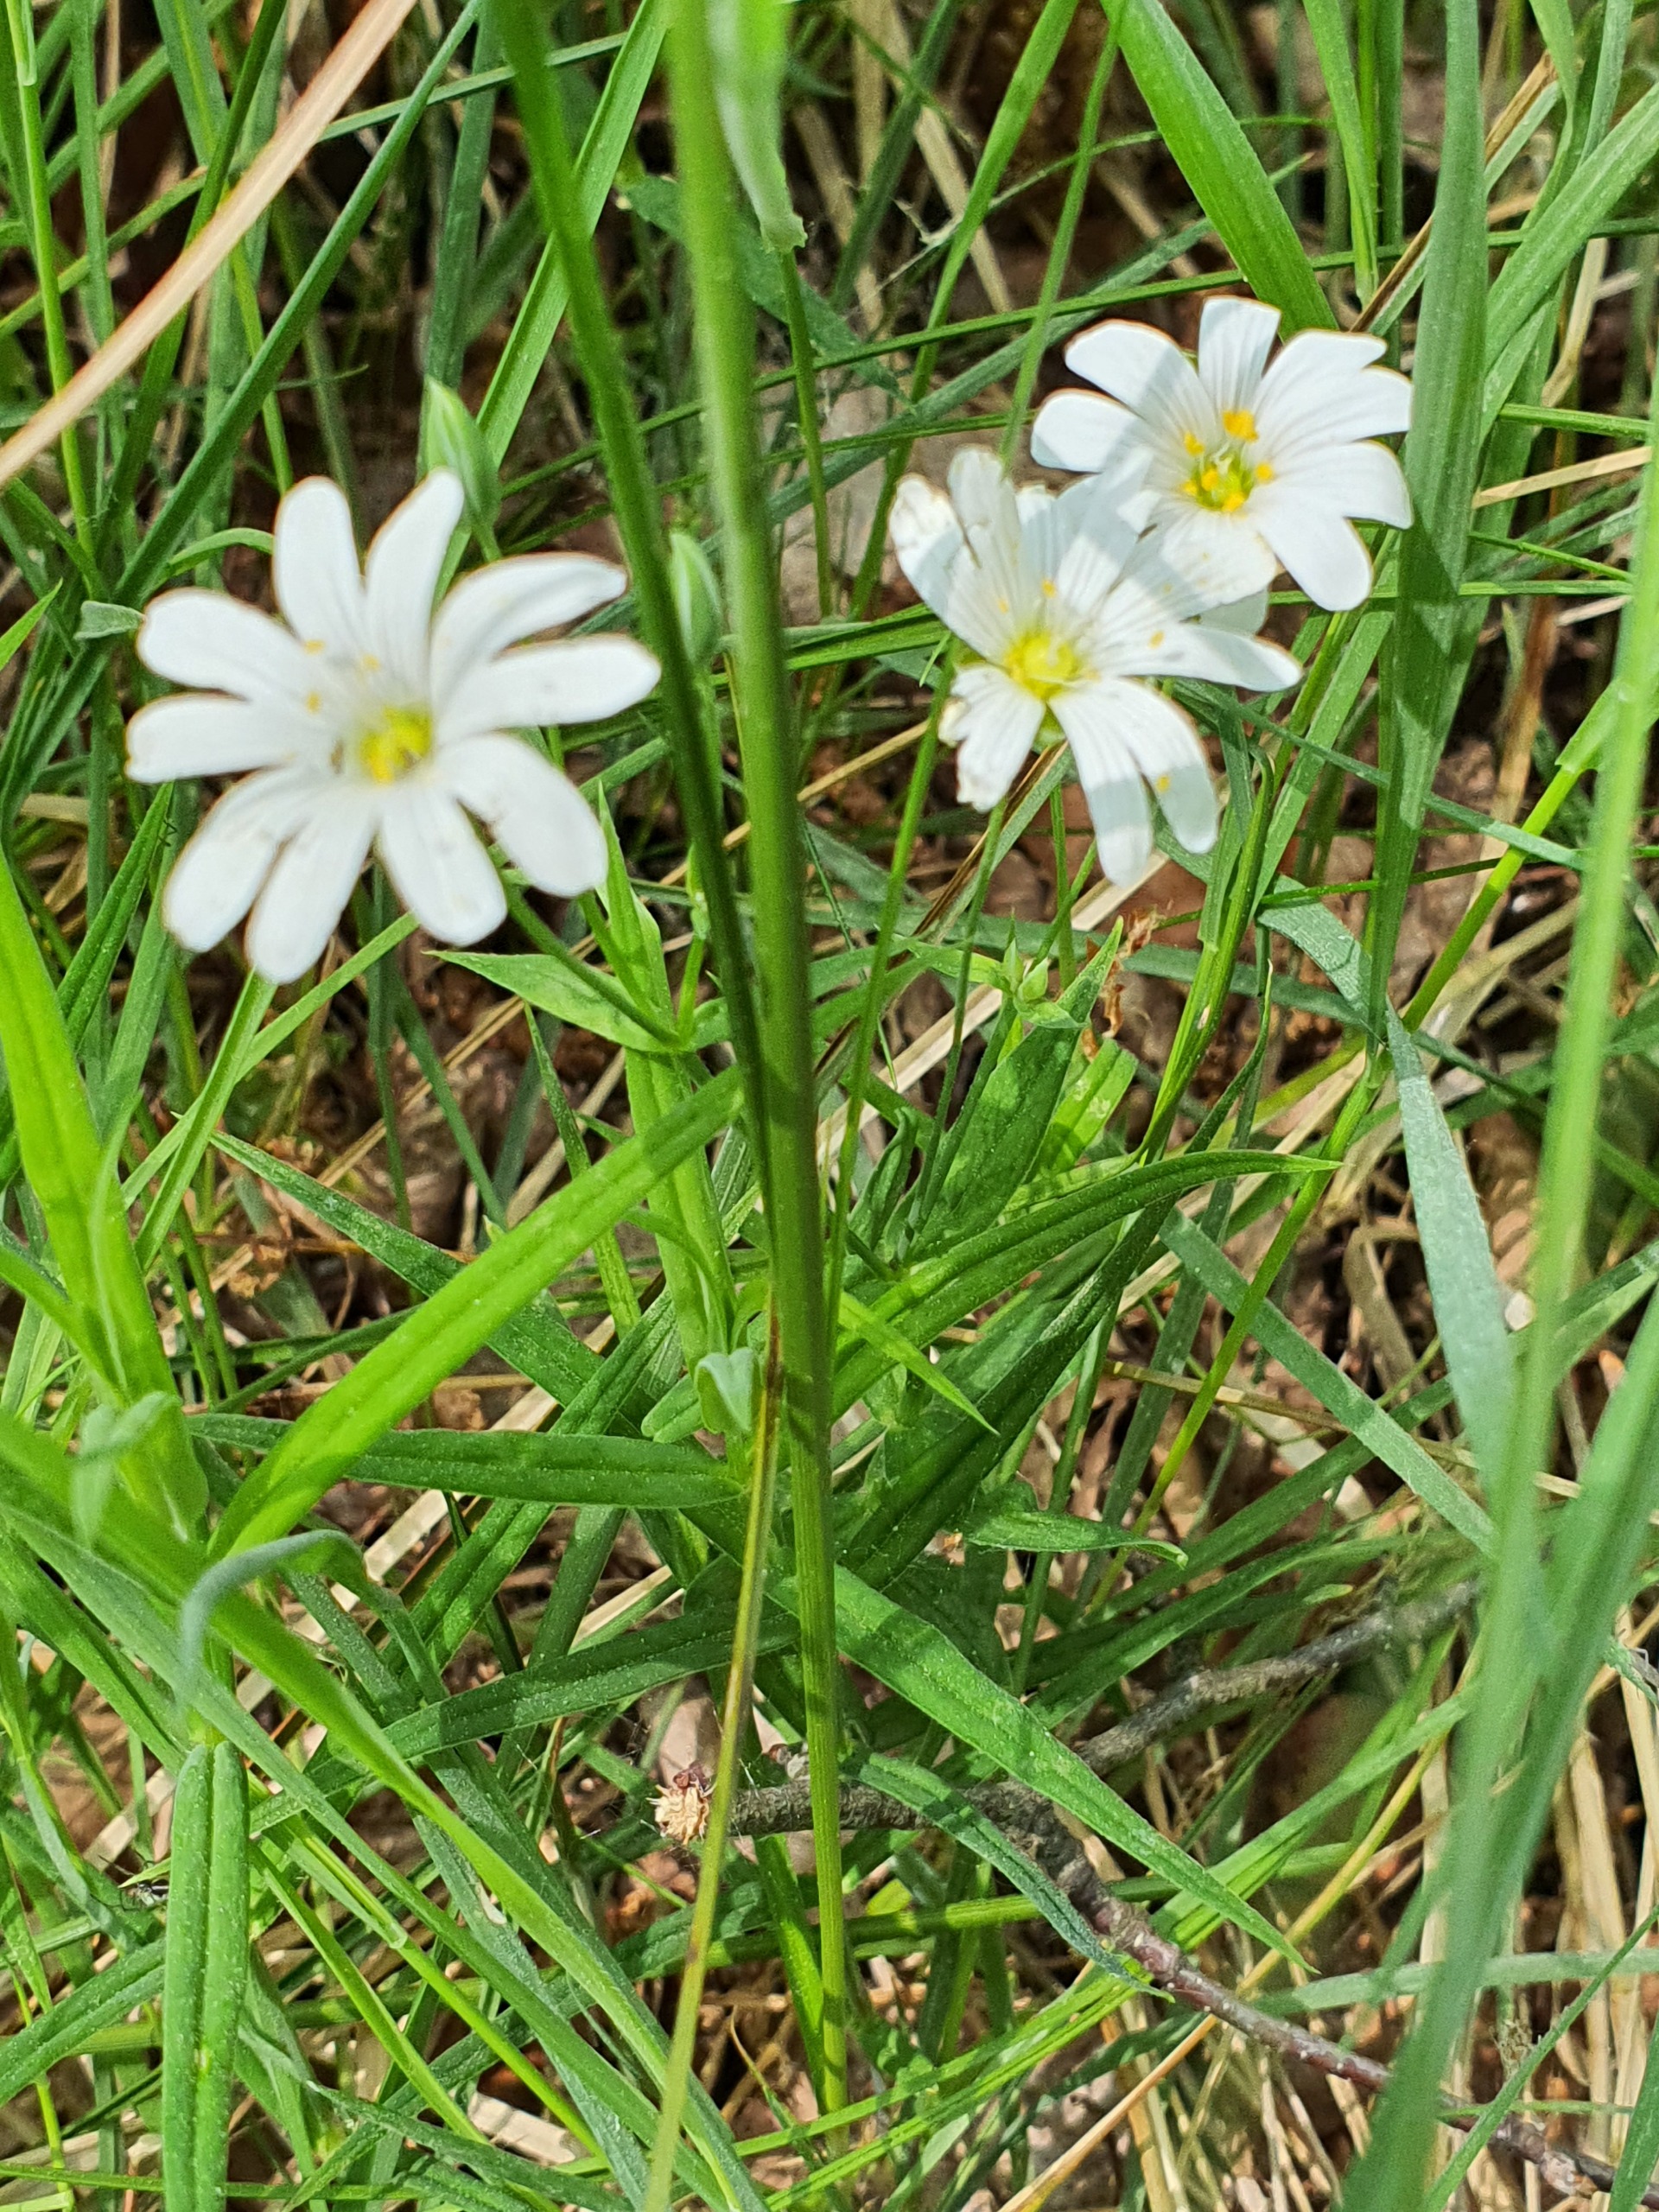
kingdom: Plantae
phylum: Tracheophyta
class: Magnoliopsida
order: Caryophyllales
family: Caryophyllaceae
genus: Rabelera
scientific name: Rabelera holostea
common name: Stor fladstjerne
